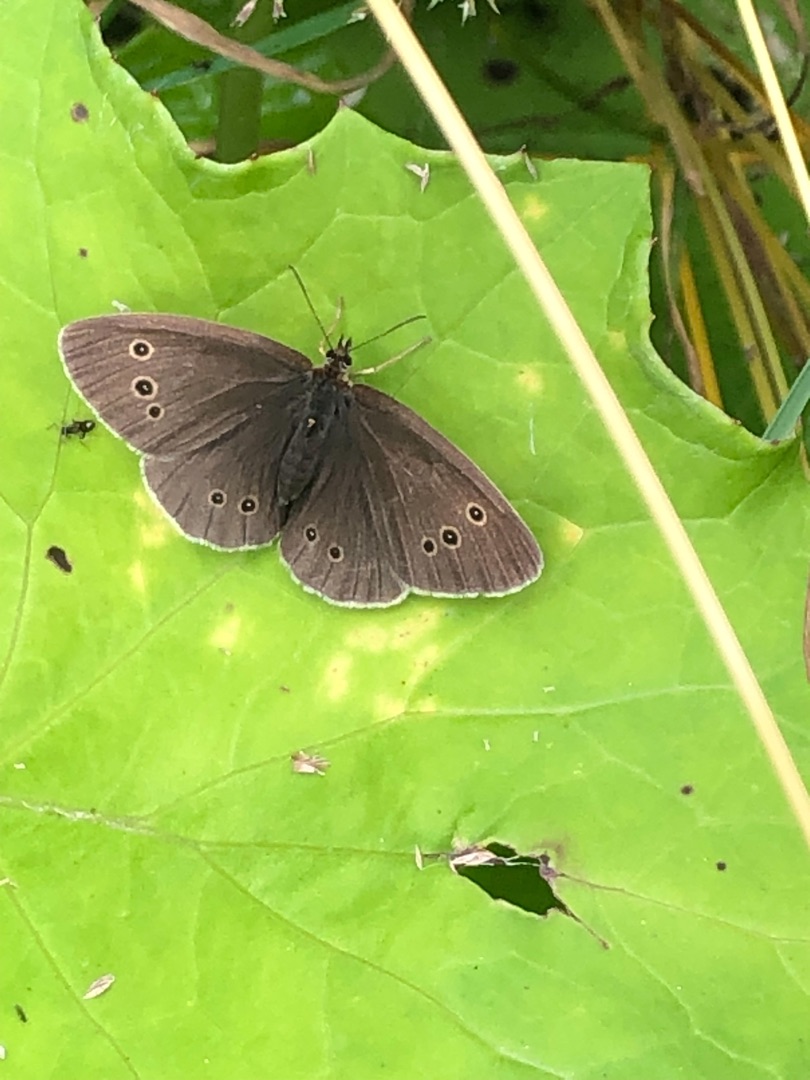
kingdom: Animalia
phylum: Arthropoda
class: Insecta
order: Lepidoptera
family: Nymphalidae
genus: Aphantopus
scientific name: Aphantopus hyperantus
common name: Engrandøje
